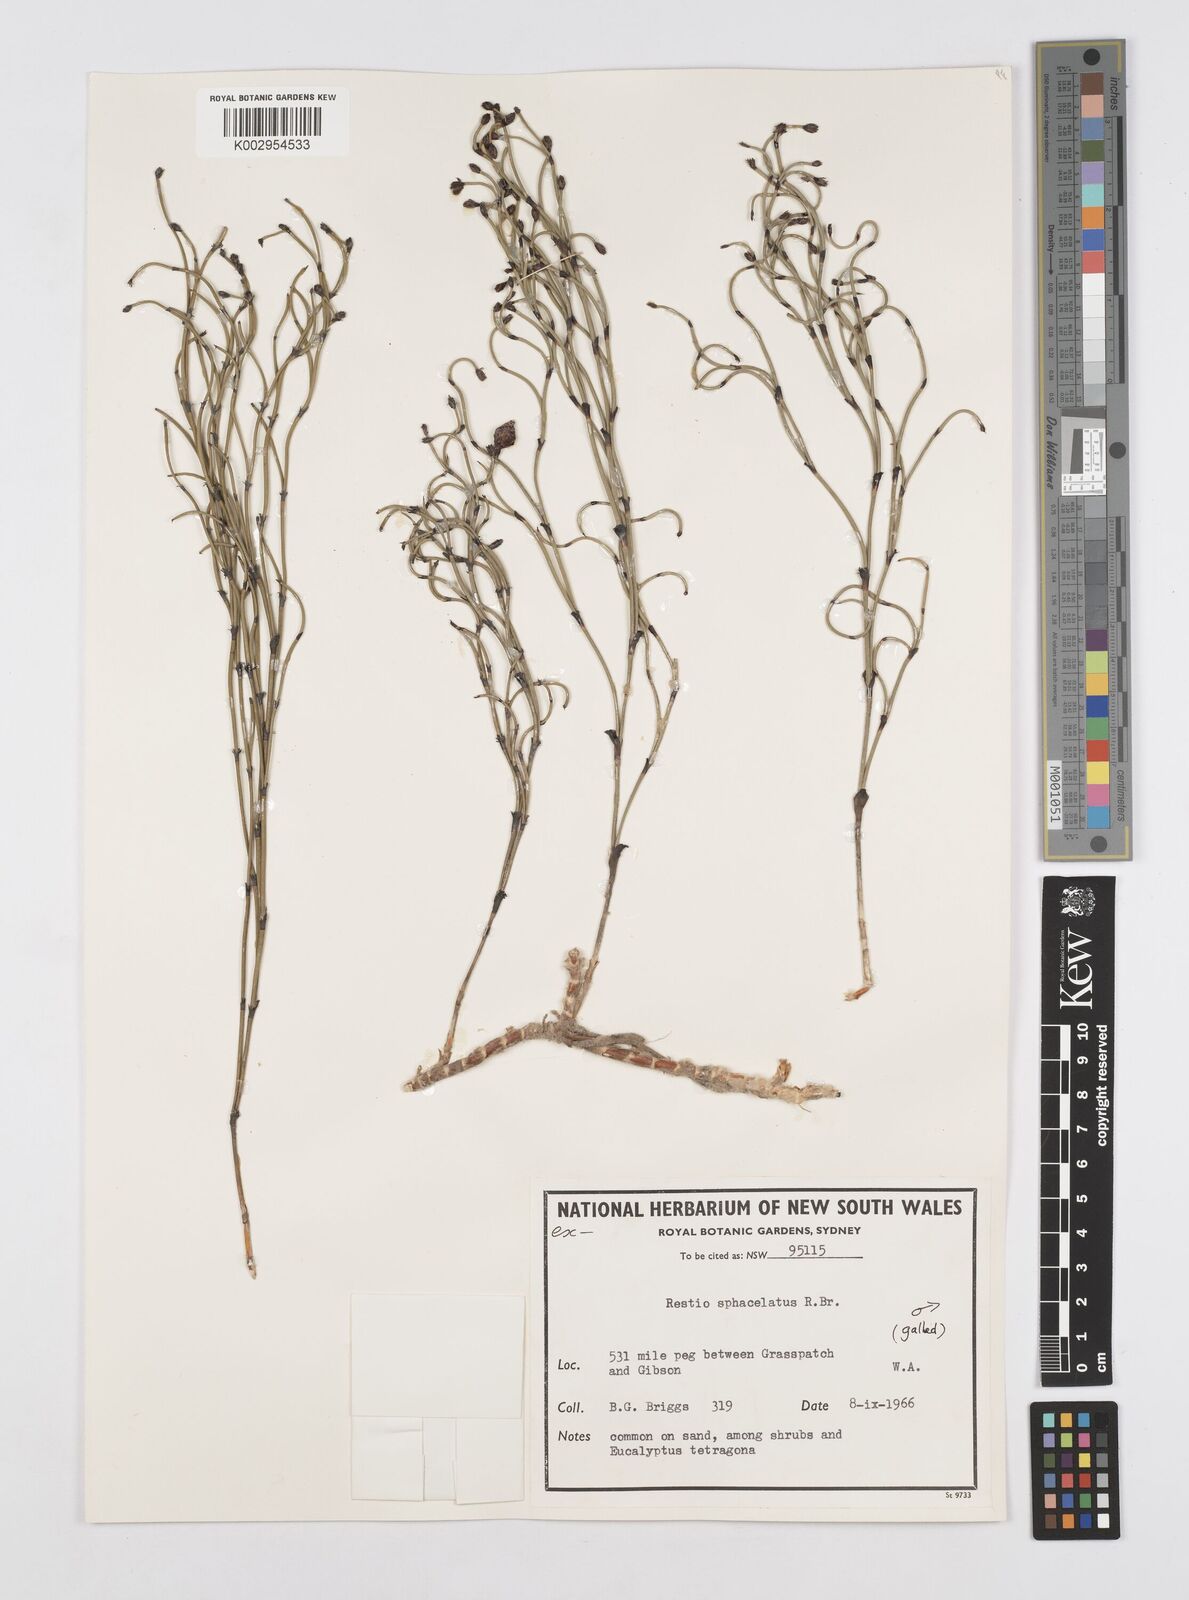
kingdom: Plantae
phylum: Tracheophyta
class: Liliopsida
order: Poales
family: Restionaceae
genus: Chordifex
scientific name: Chordifex sphacelatus
